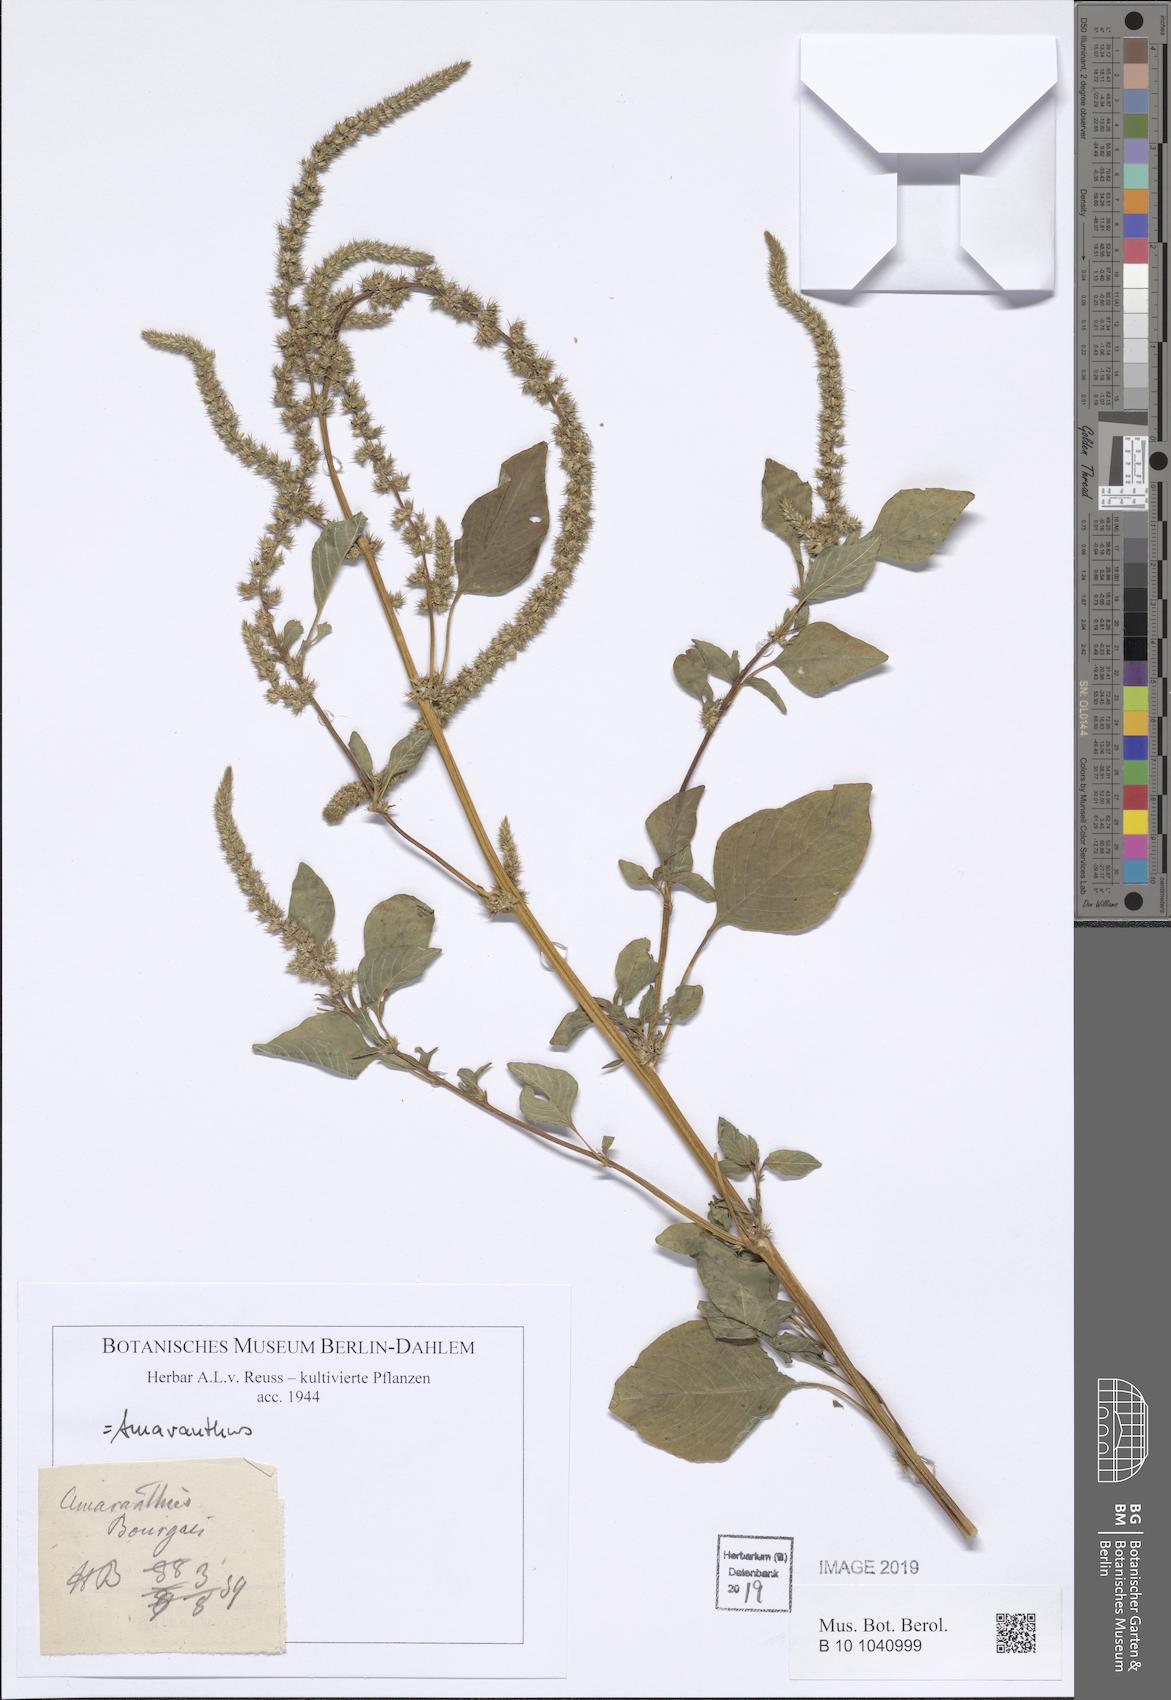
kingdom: Plantae
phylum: Tracheophyta
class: Magnoliopsida
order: Caryophyllales
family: Amaranthaceae
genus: Amaranthus
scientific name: Amaranthus
